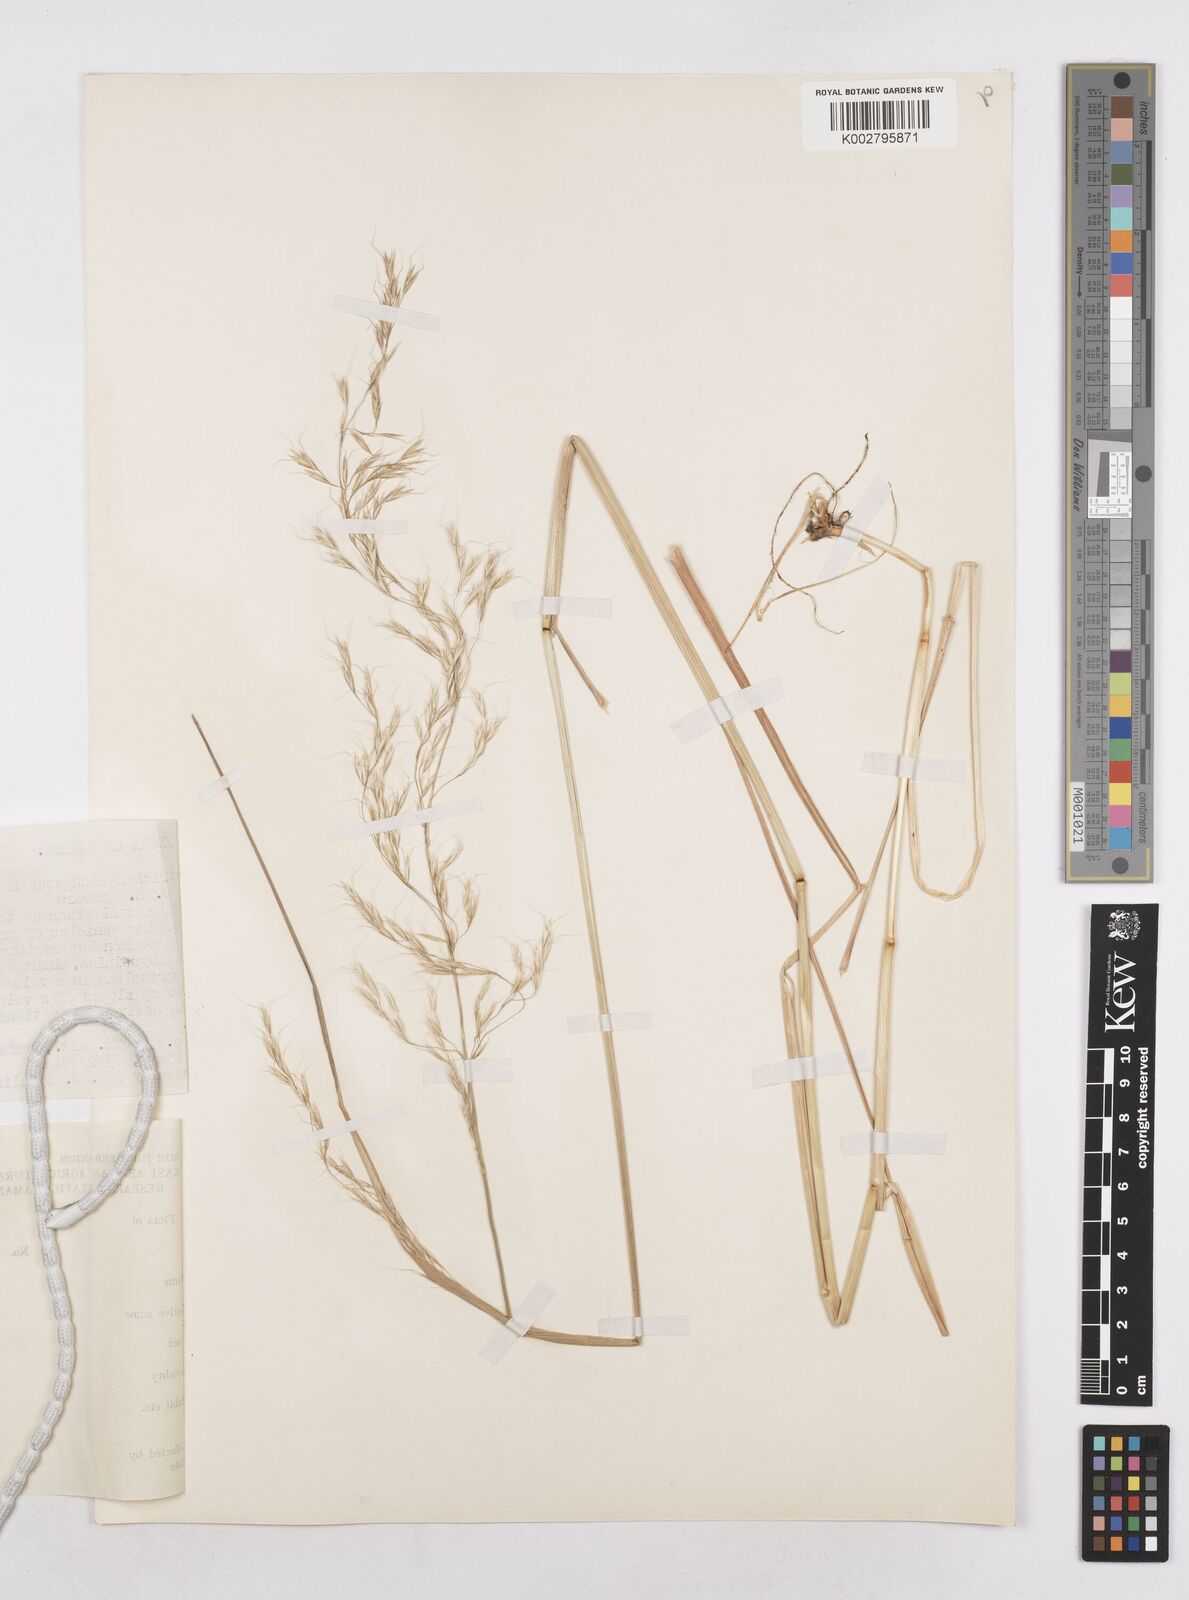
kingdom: Plantae
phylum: Tracheophyta
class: Liliopsida
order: Poales
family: Poaceae
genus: Trisetopsis
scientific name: Trisetopsis elongata
